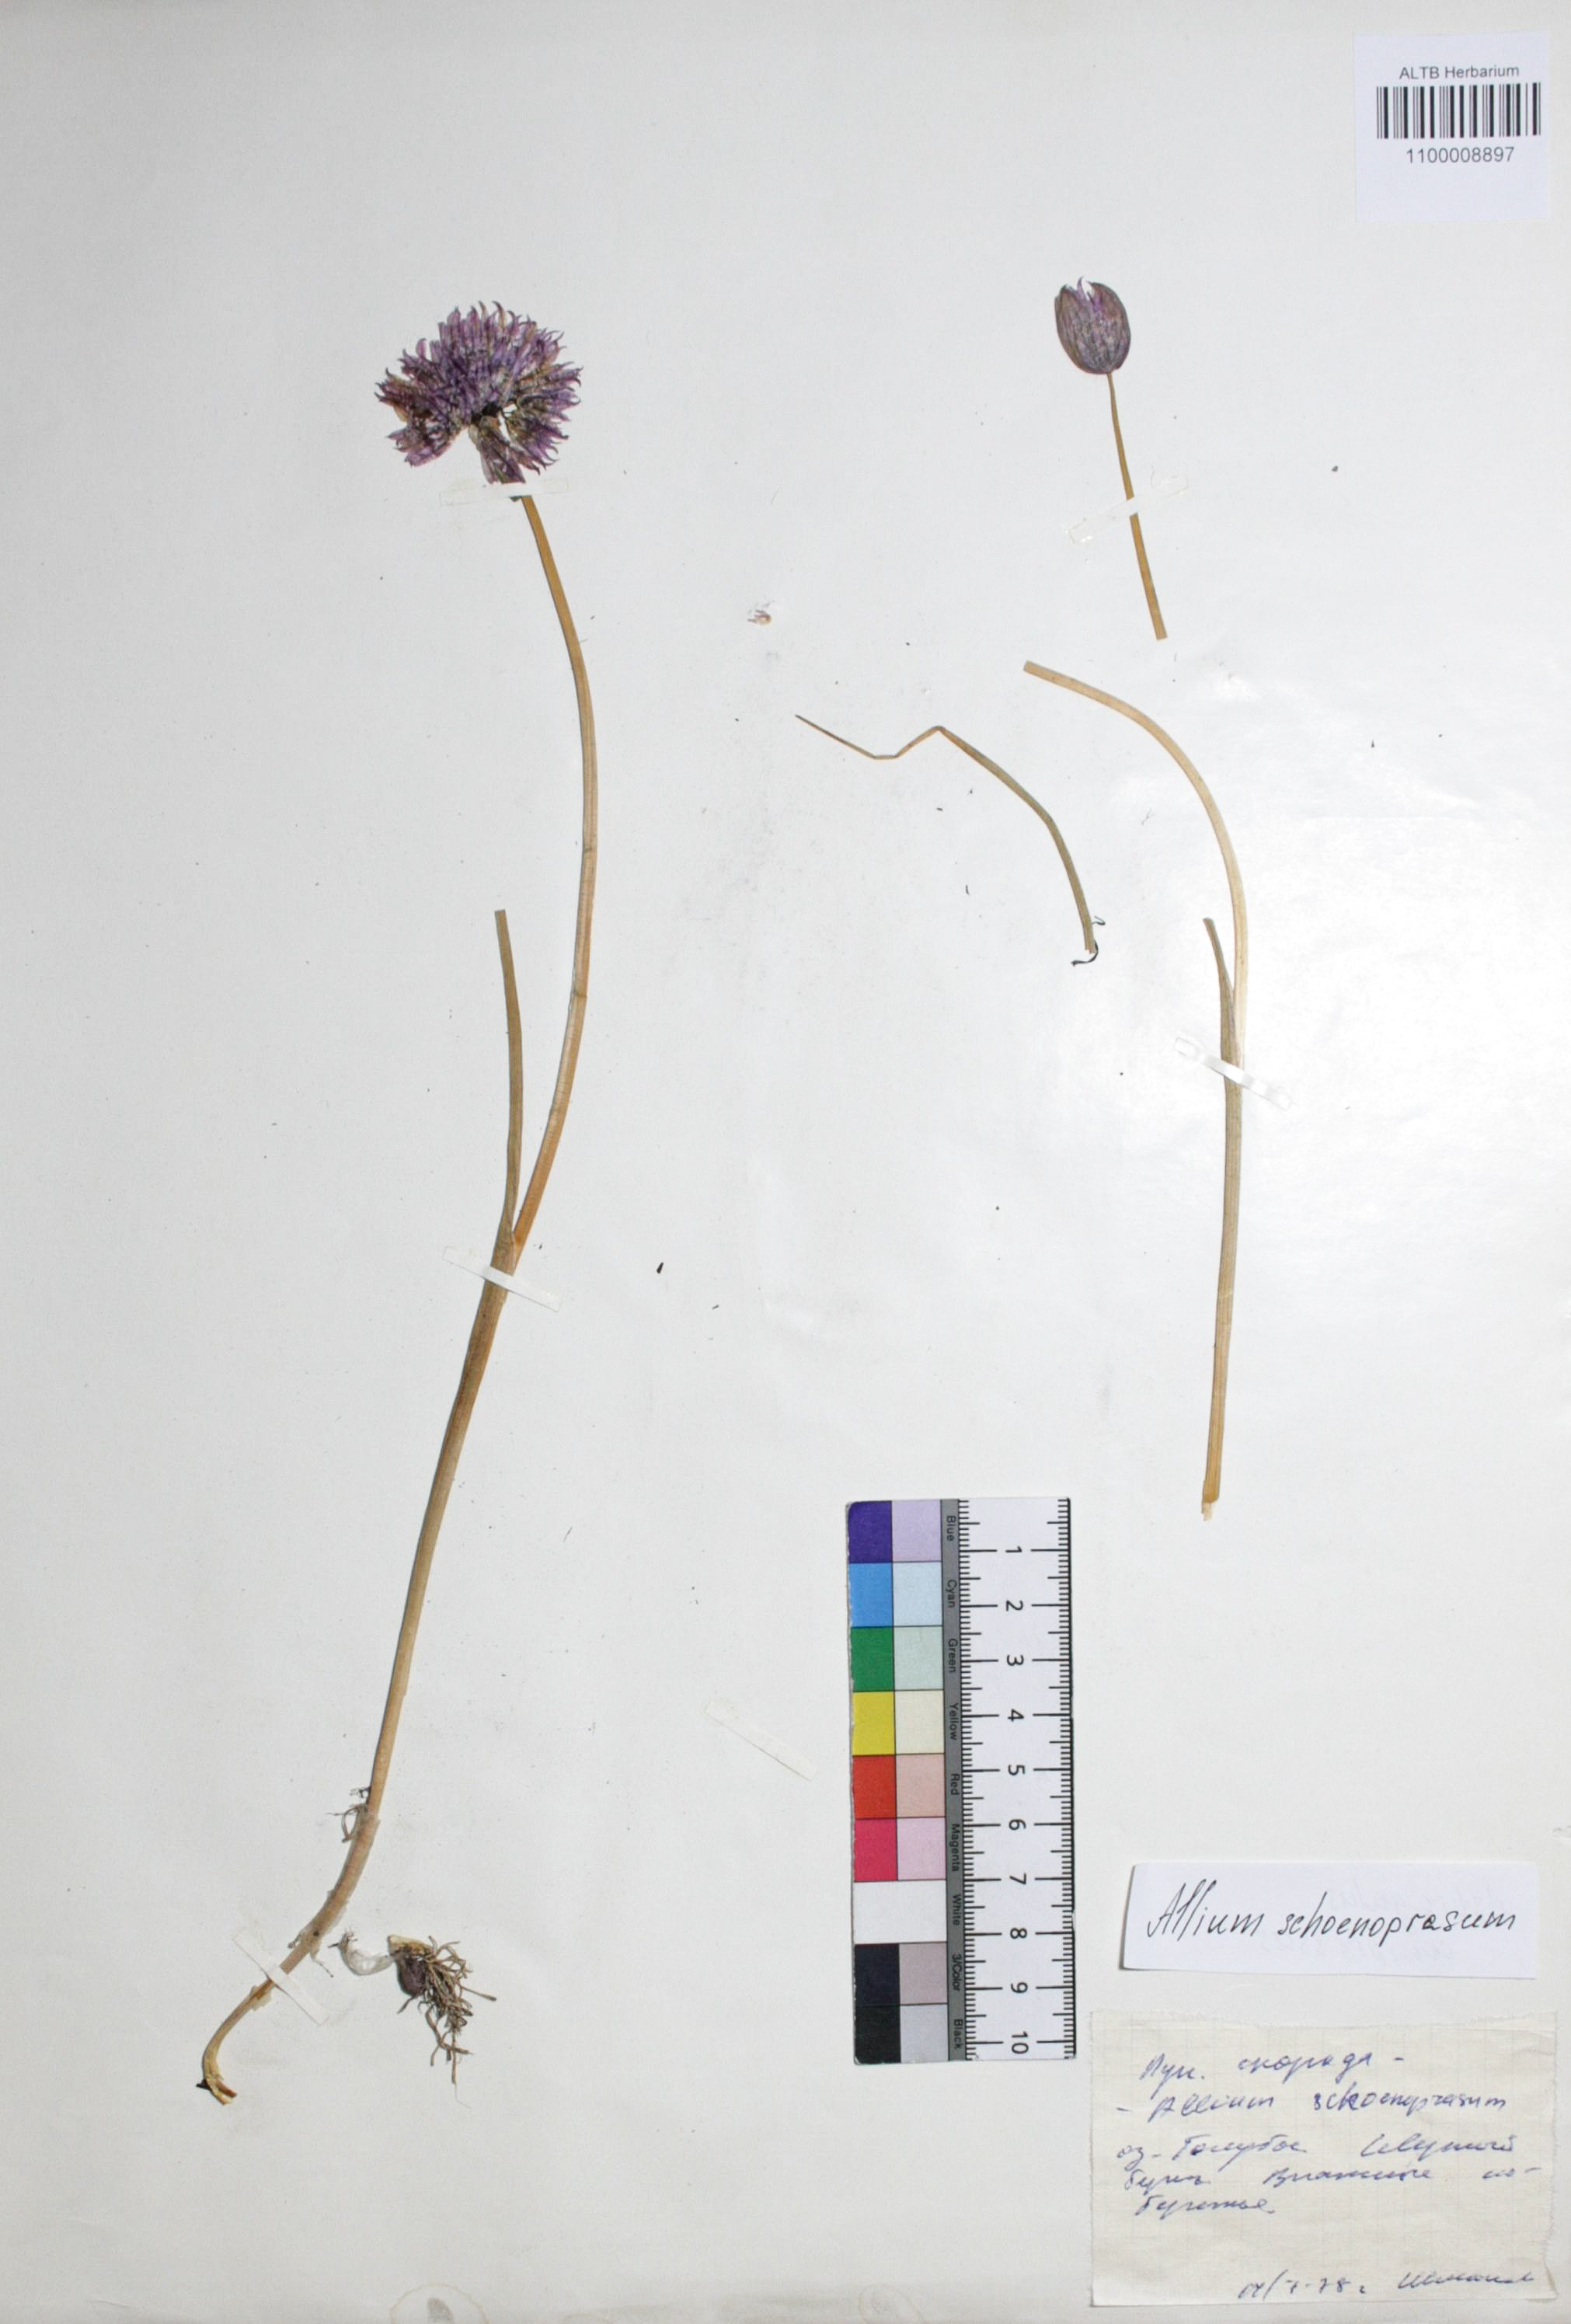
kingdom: Plantae
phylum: Tracheophyta
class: Liliopsida
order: Asparagales
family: Amaryllidaceae
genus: Allium
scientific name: Allium schoenoprasum
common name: Chives
